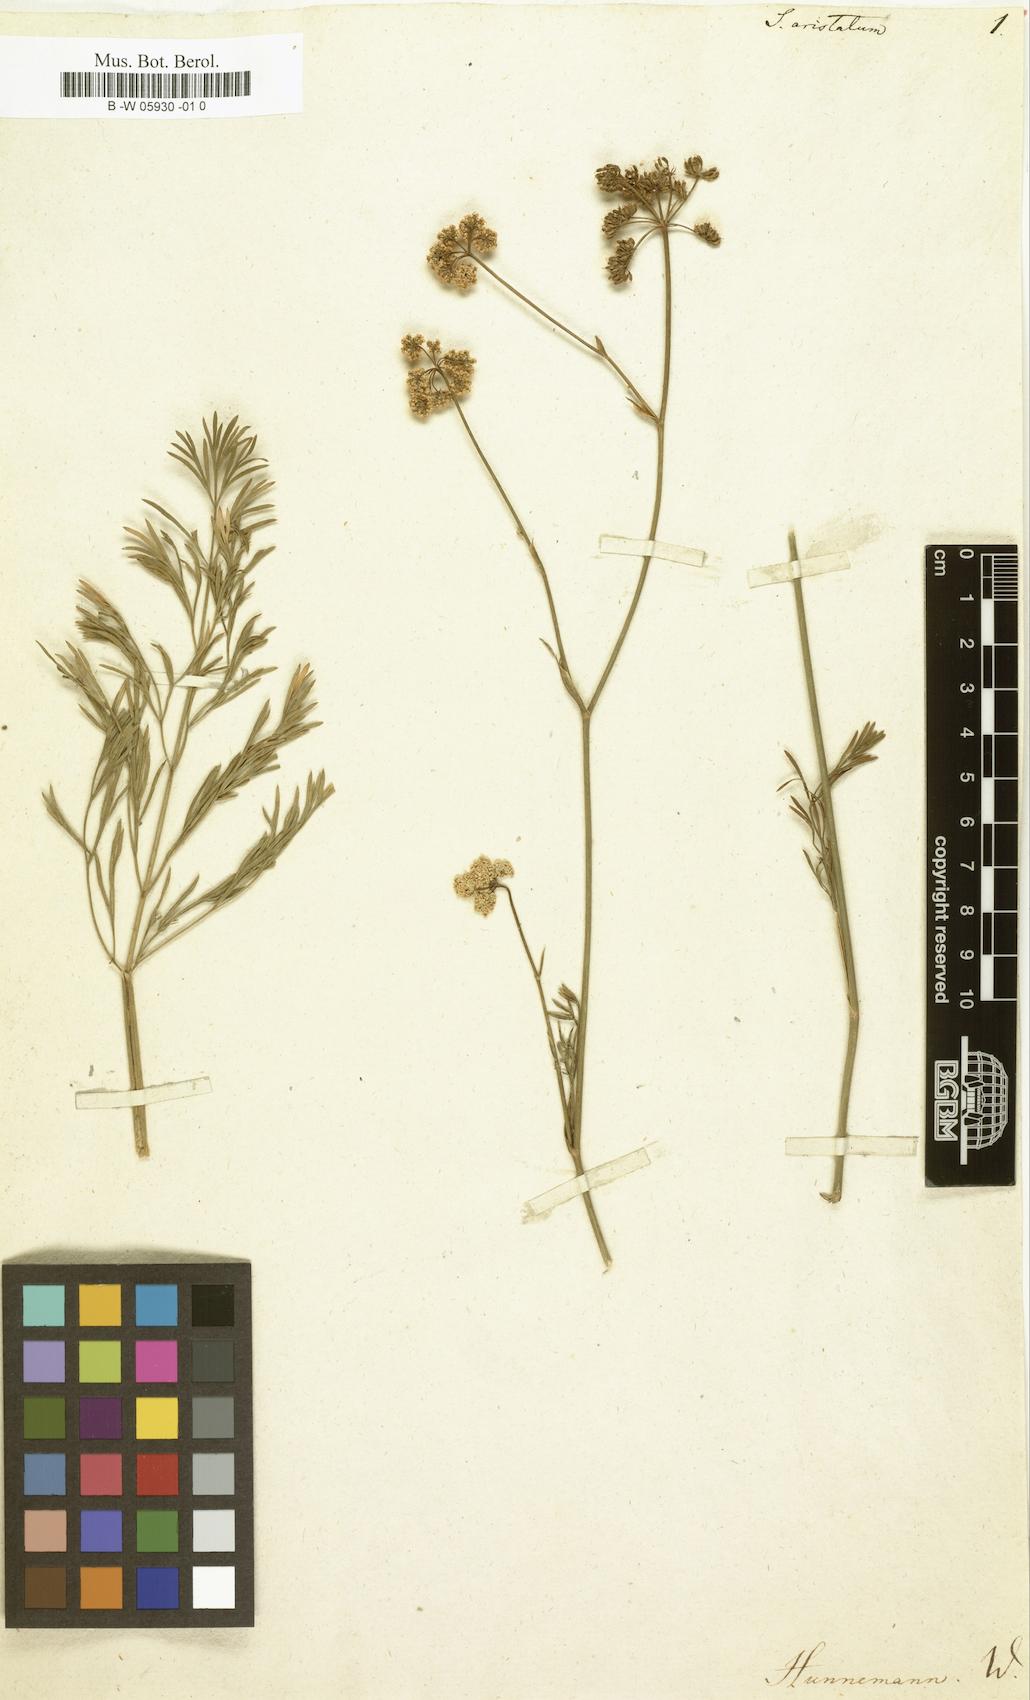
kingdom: Plantae
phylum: Tracheophyta
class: Magnoliopsida
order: Apiales
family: Apiaceae
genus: Coristospermum
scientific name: Coristospermum lucidum
